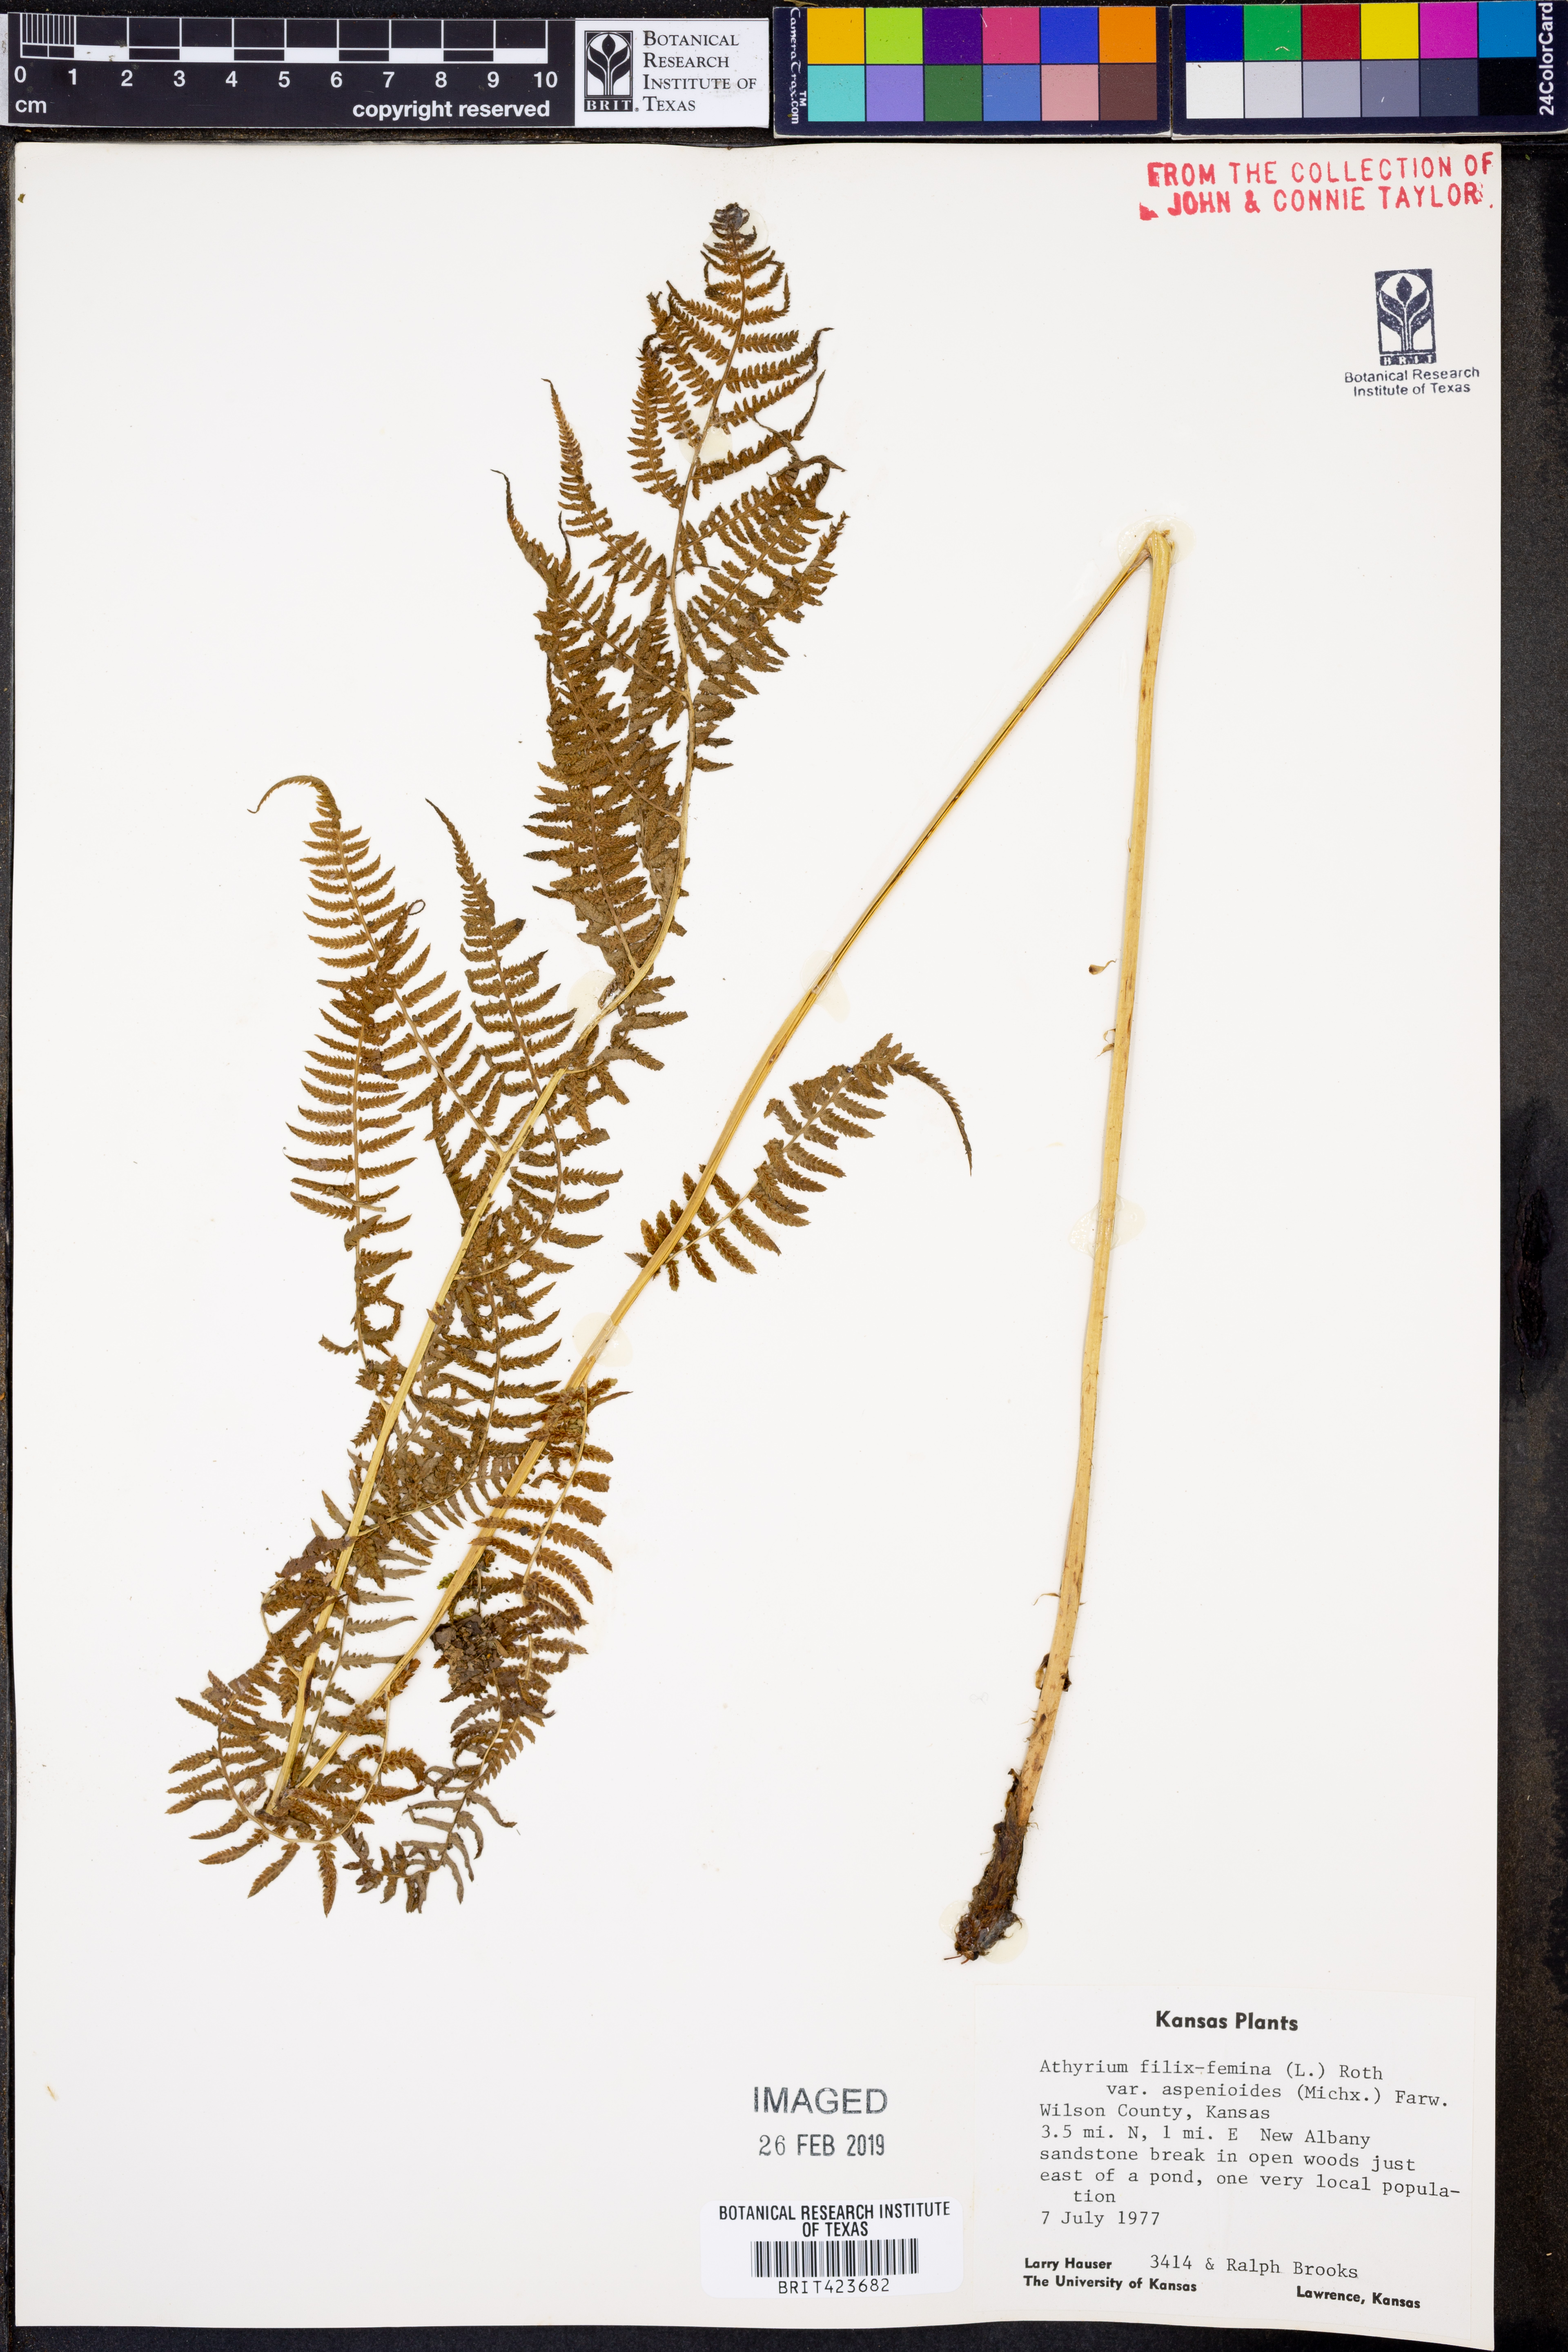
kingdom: Plantae
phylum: Tracheophyta
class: Polypodiopsida
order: Polypodiales
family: Athyriaceae
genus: Athyrium
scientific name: Athyrium asplenioides
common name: Southern lady fern
